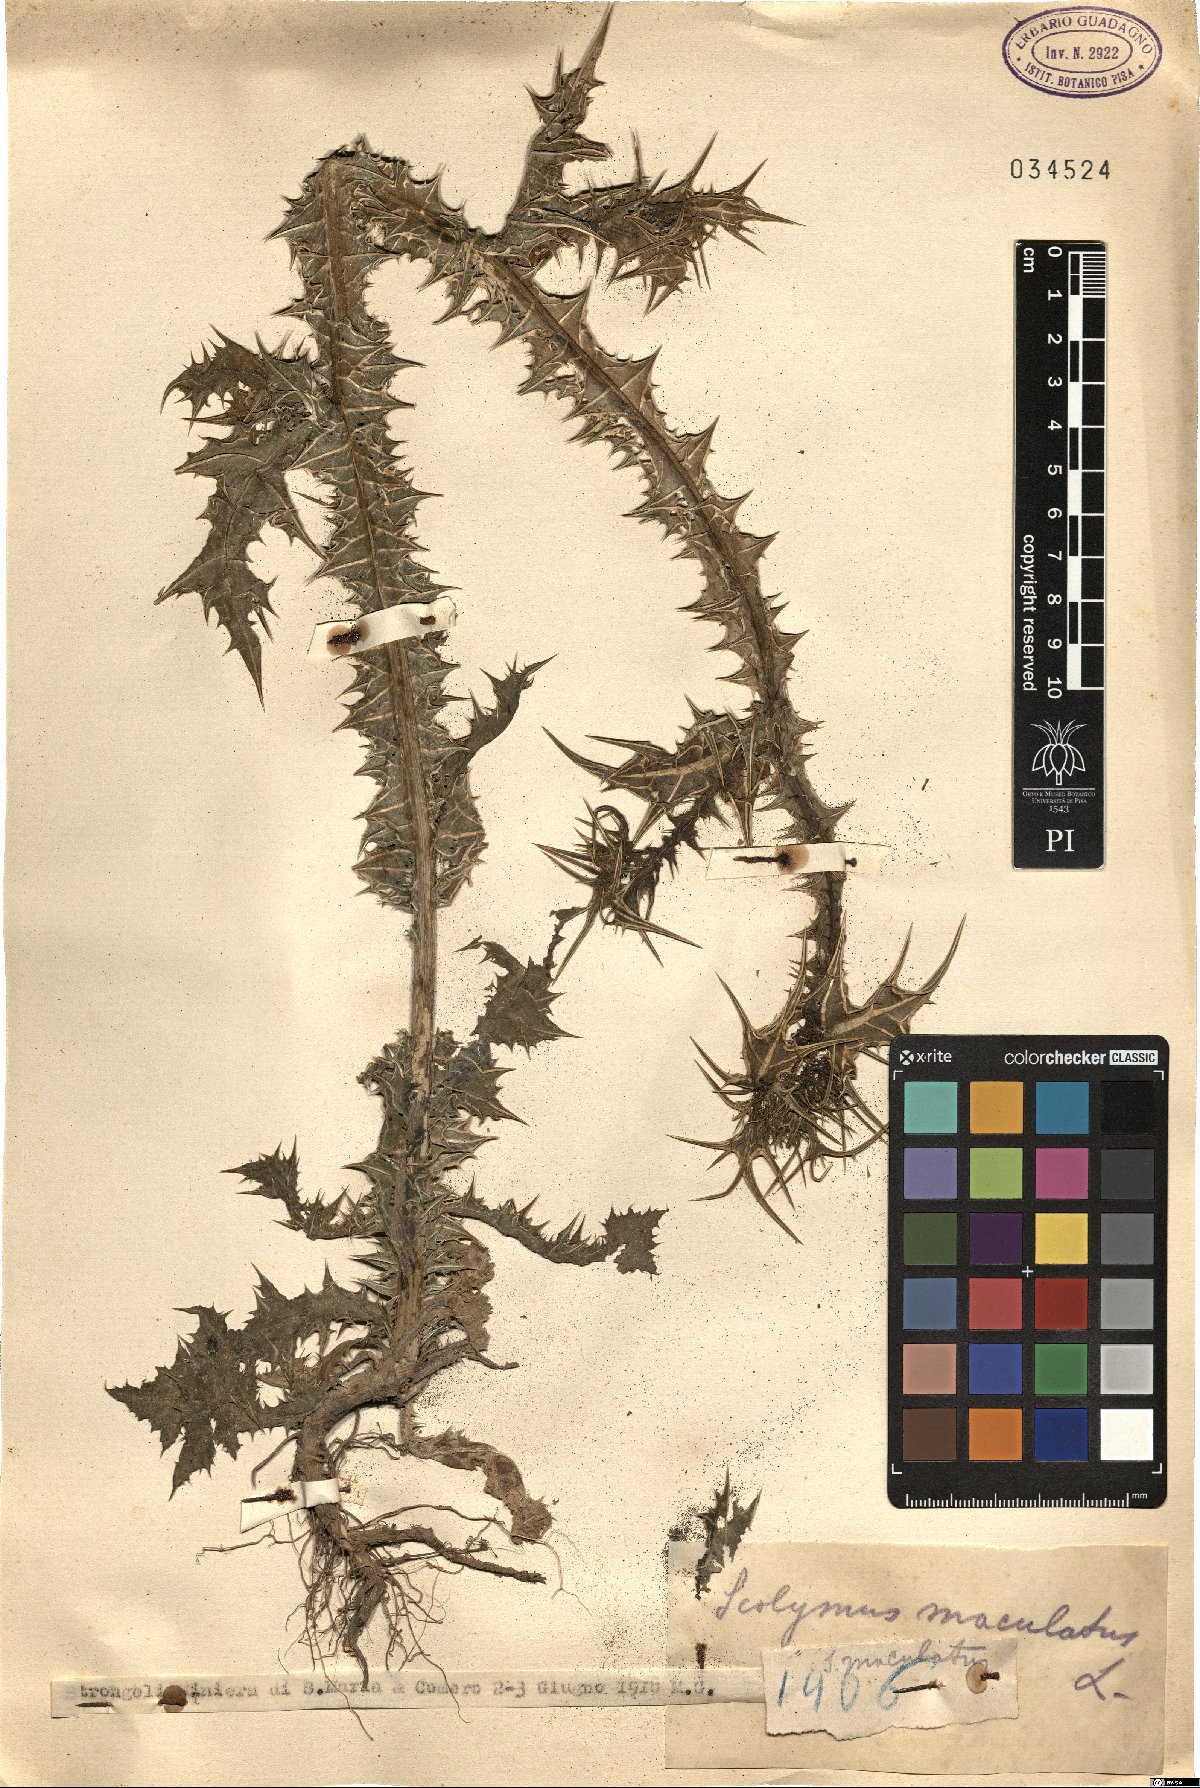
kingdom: Plantae
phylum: Tracheophyta
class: Magnoliopsida
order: Asterales
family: Asteraceae
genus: Scolymus
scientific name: Scolymus maculatus
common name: Spotted thistle
